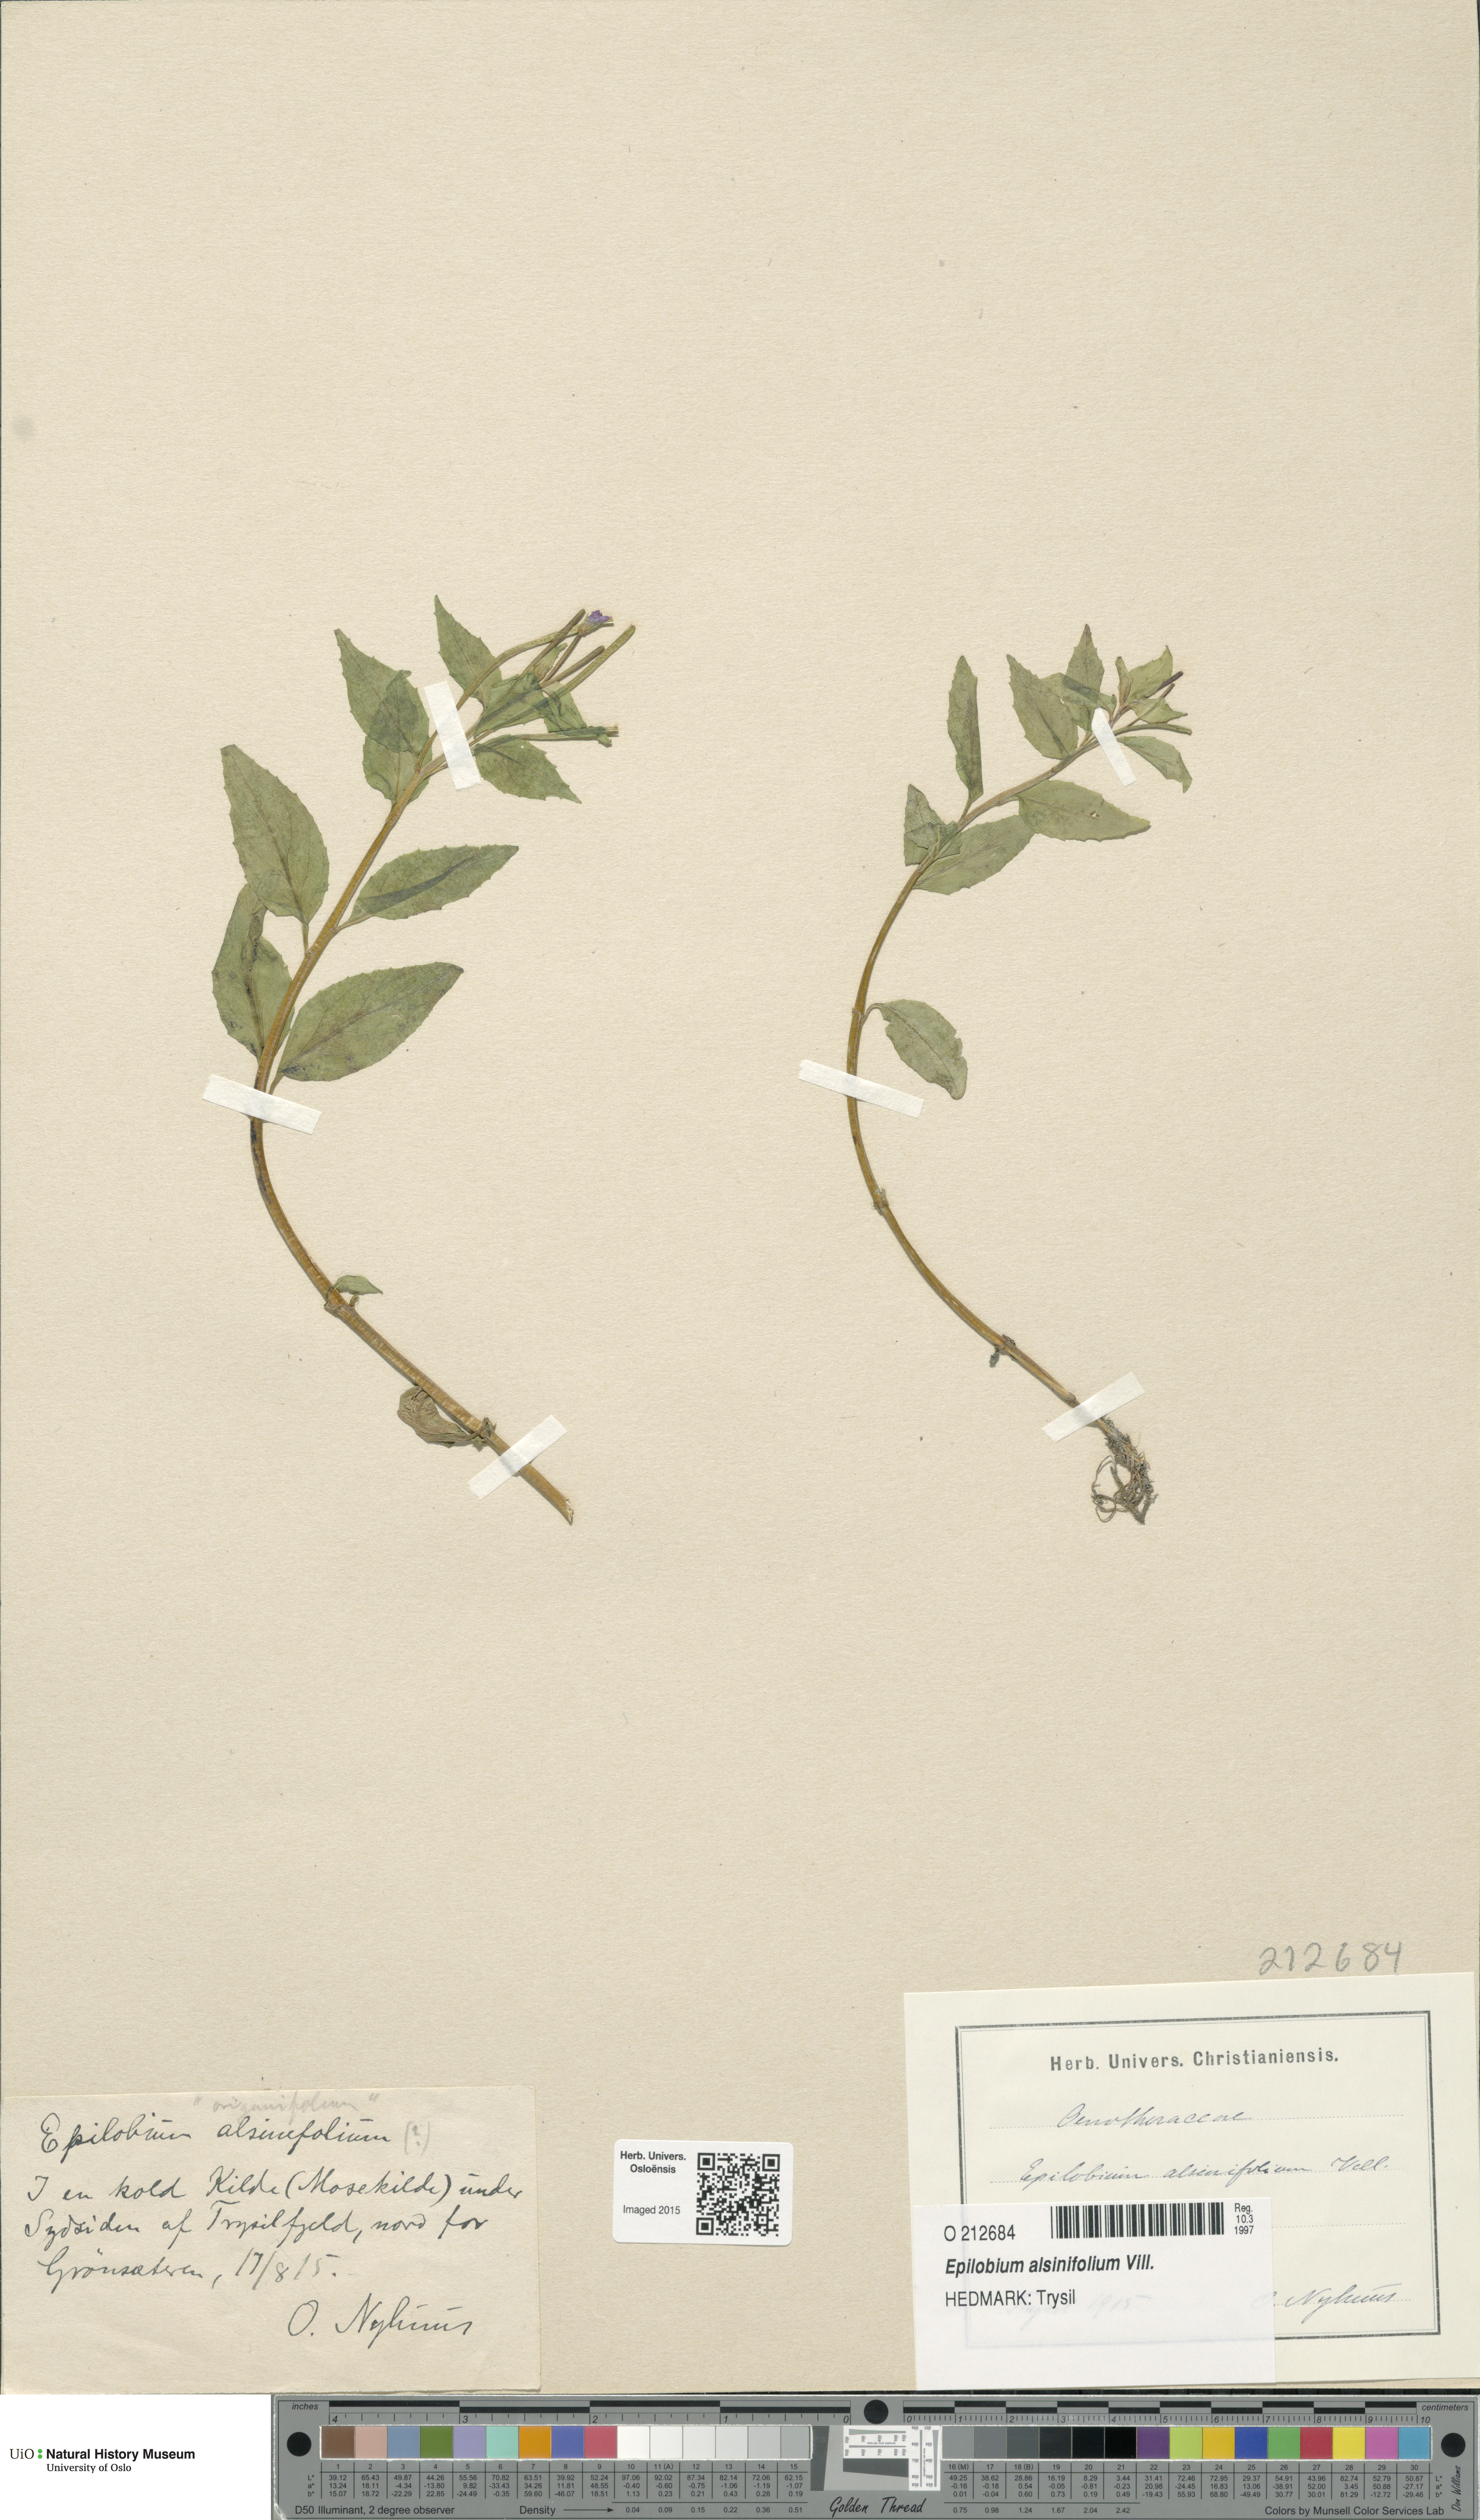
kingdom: Plantae
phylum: Tracheophyta
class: Magnoliopsida
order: Myrtales
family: Onagraceae
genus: Epilobium
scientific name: Epilobium alsinifolium
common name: Chickweed willowherb
